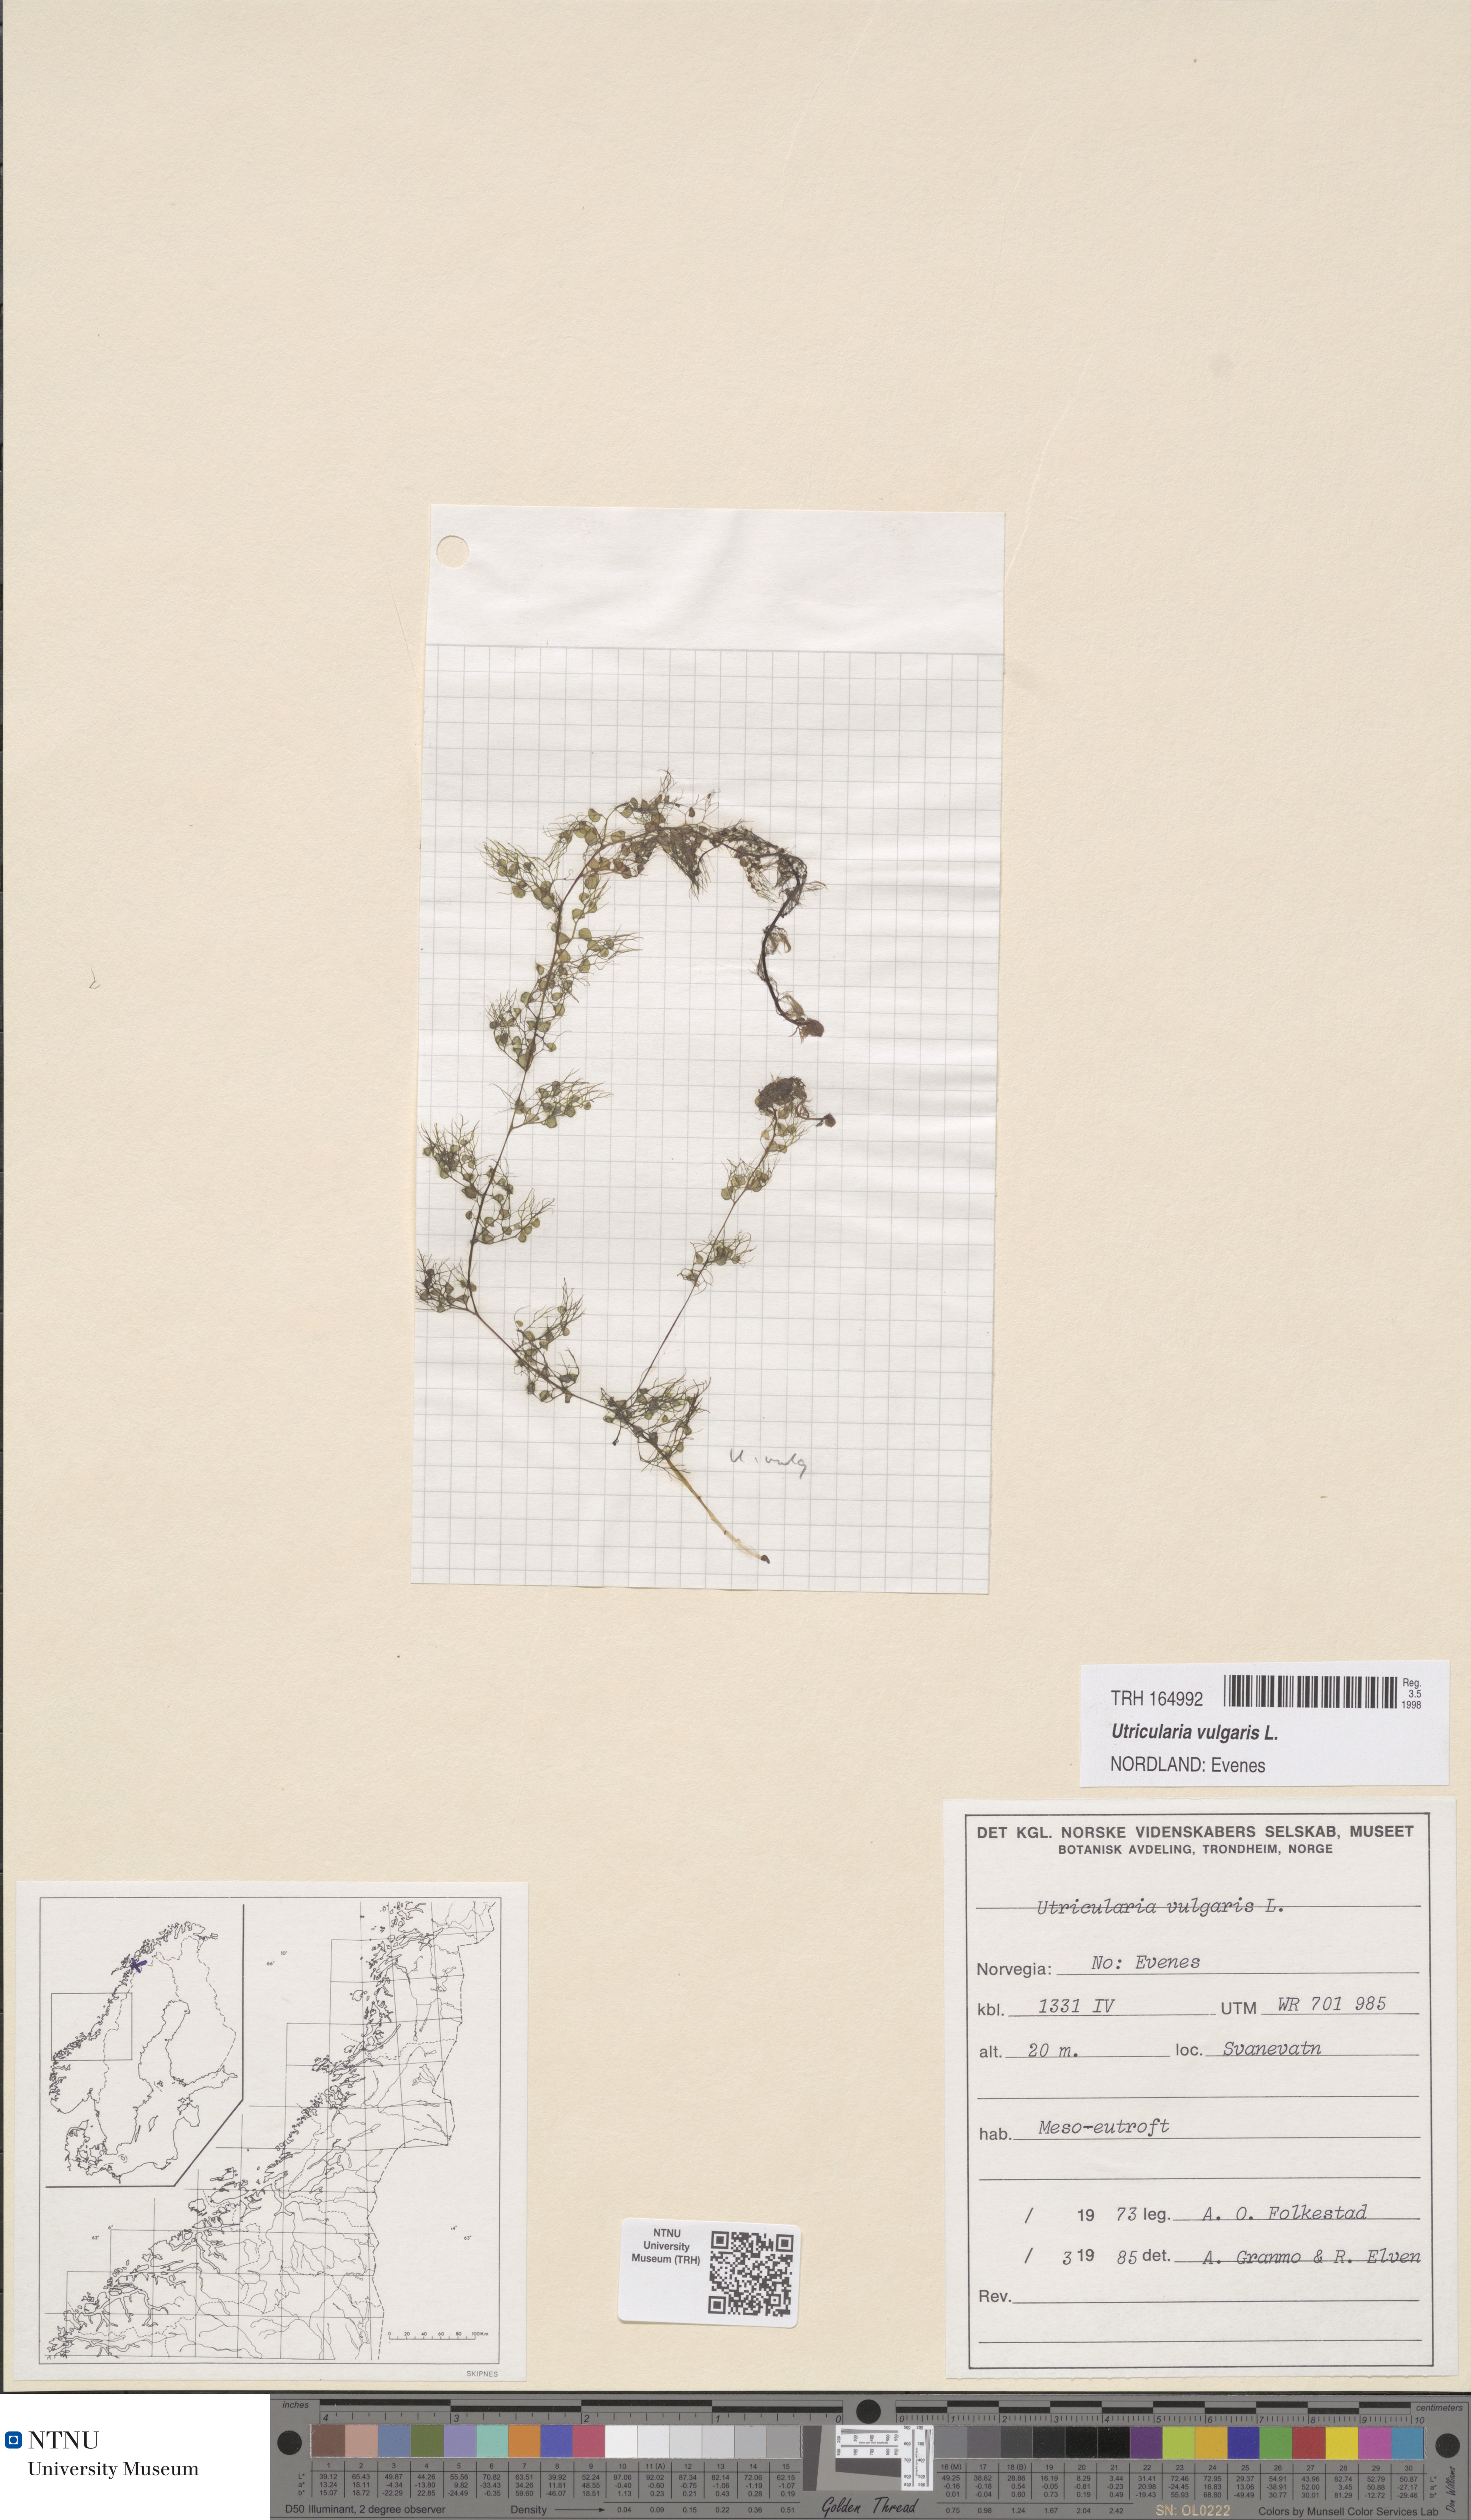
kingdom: Plantae
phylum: Tracheophyta
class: Magnoliopsida
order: Lamiales
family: Lentibulariaceae
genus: Utricularia
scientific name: Utricularia vulgaris
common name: Greater bladderwort
